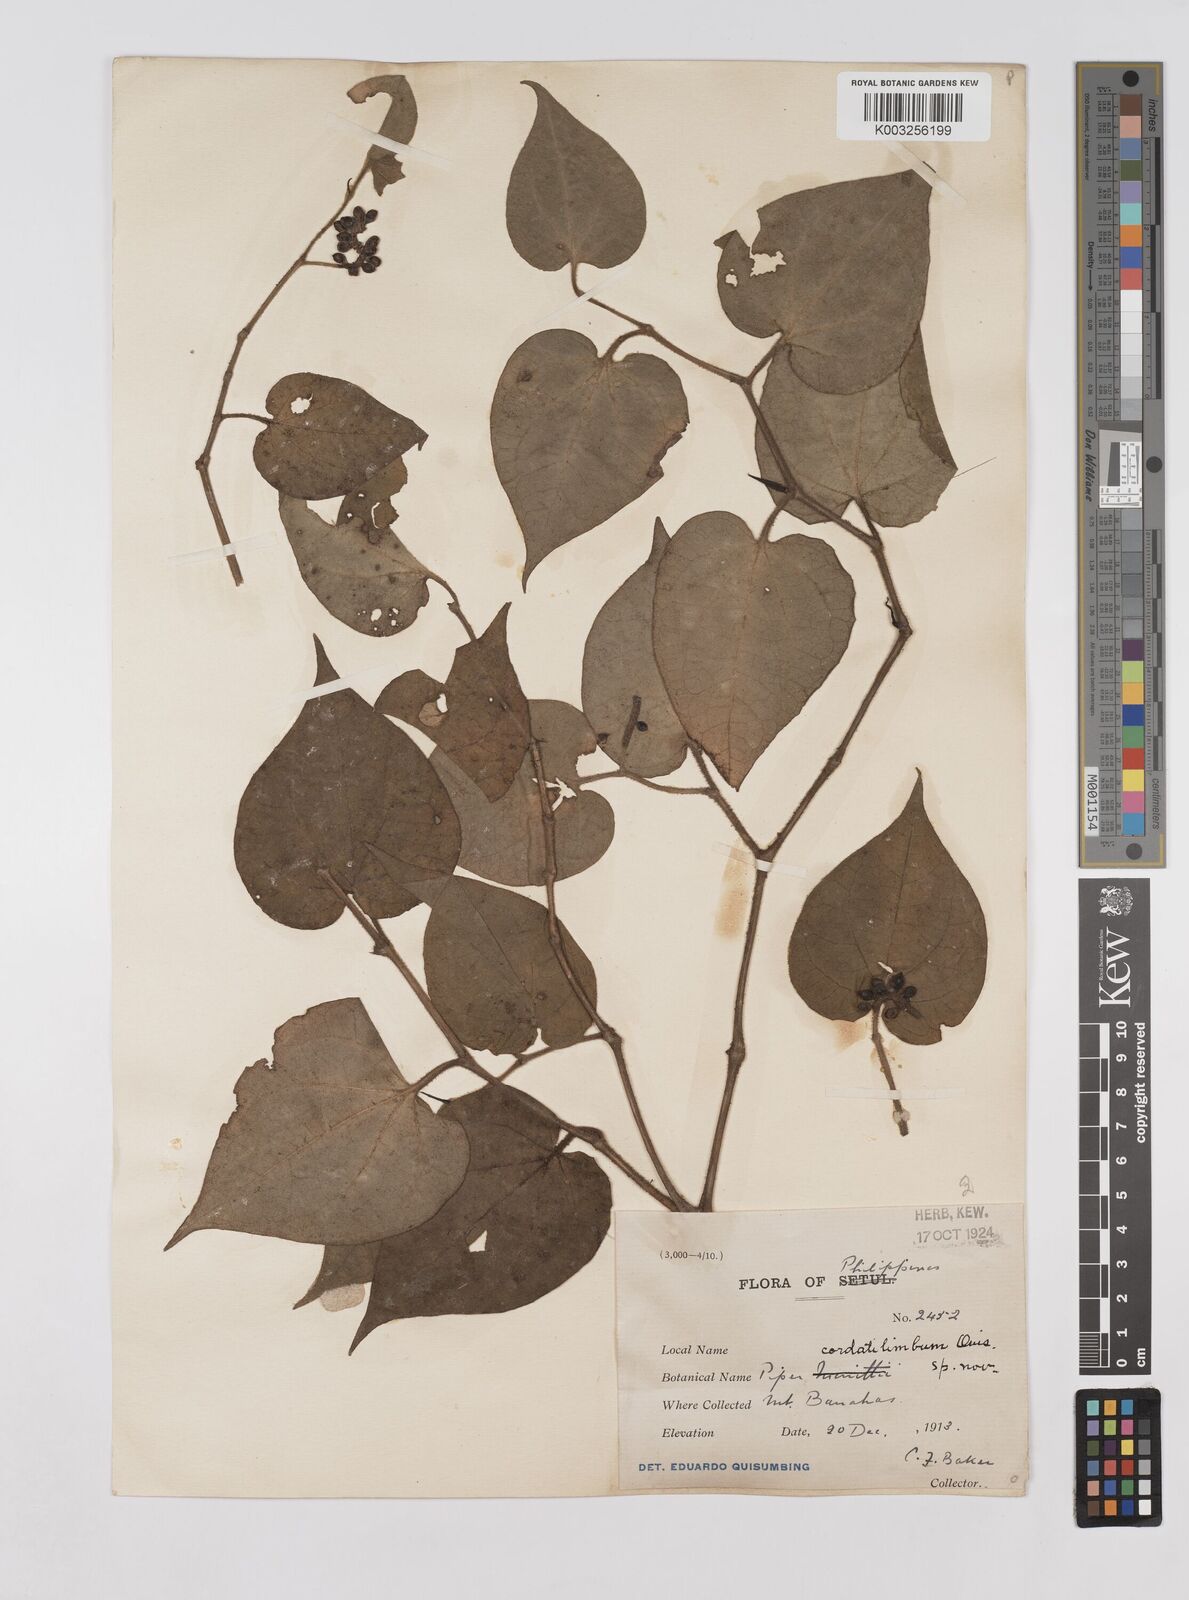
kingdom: Plantae
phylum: Tracheophyta
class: Magnoliopsida
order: Piperales
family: Piperaceae
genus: Piper
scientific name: Piper cordatilimbum
